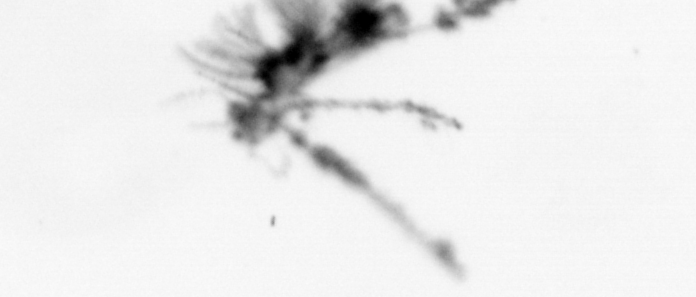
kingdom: Animalia
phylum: Cnidaria
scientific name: Cnidaria
